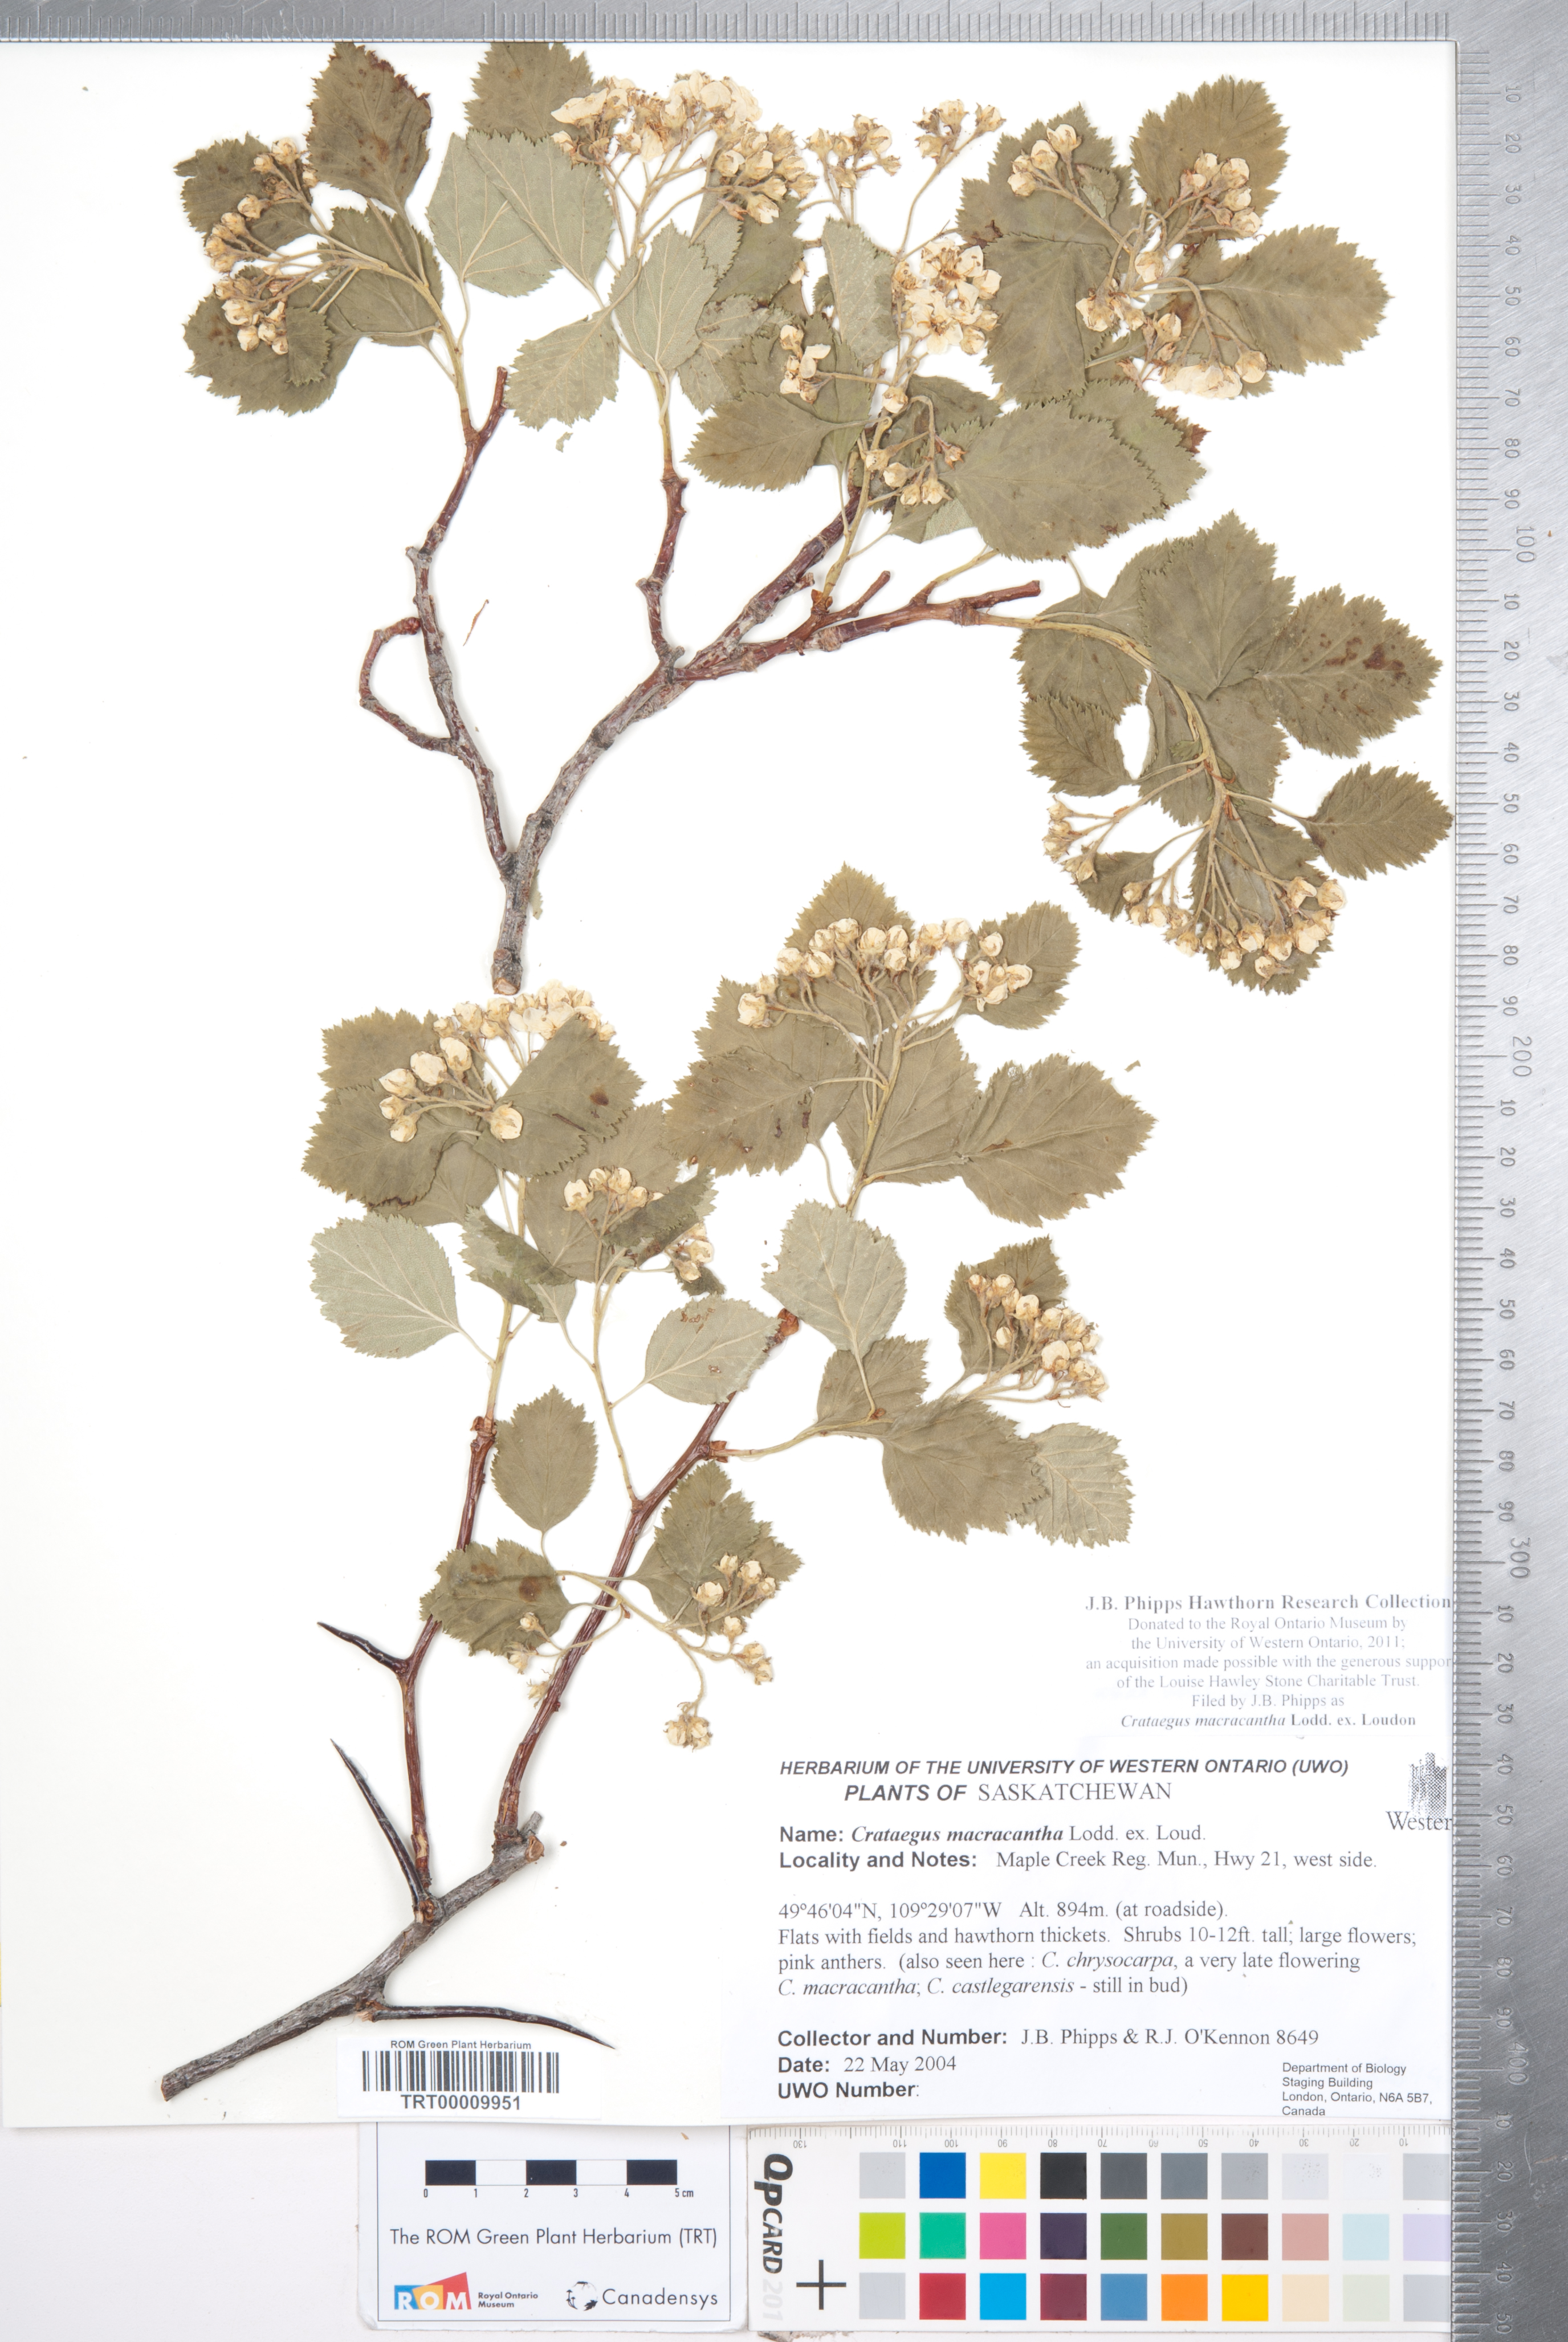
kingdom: Plantae
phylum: Tracheophyta
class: Magnoliopsida
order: Rosales
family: Rosaceae
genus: Crataegus
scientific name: Crataegus macracantha
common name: Large-thorn hawthorn
